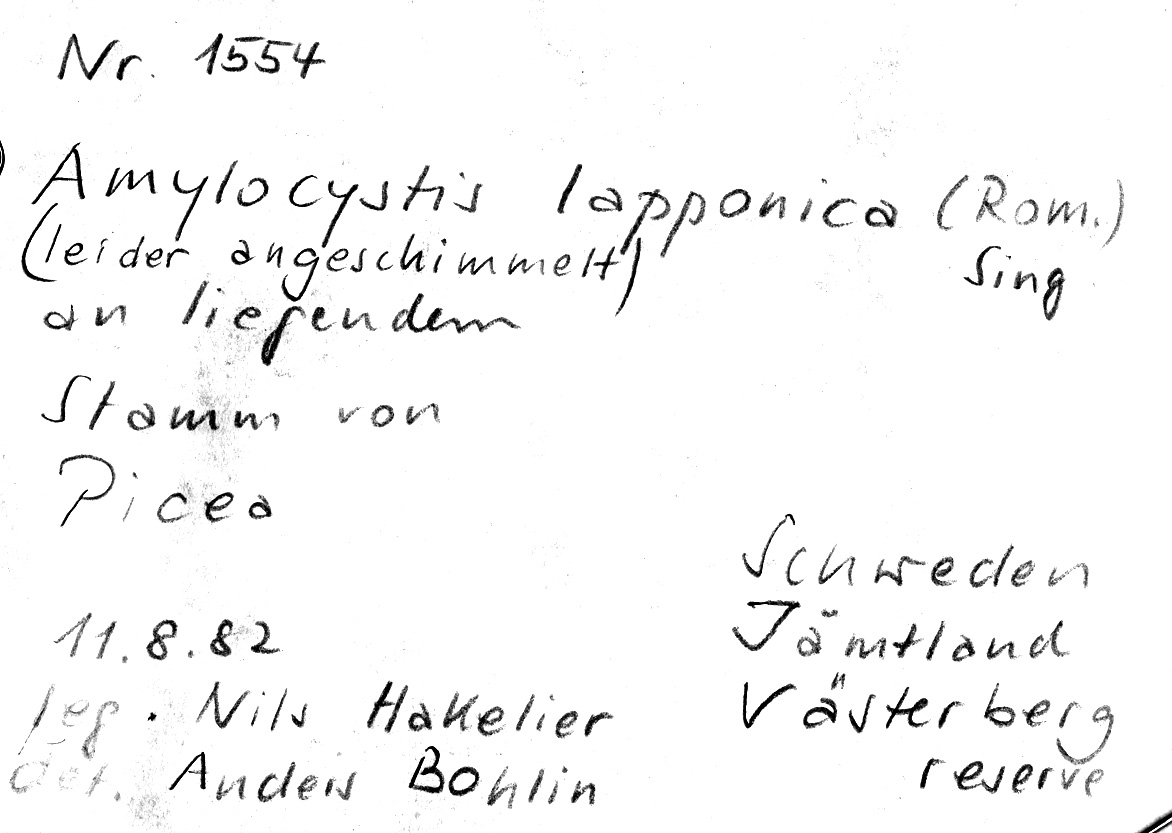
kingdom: Plantae
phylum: Tracheophyta
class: Pinopsida
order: Pinales
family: Pinaceae
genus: Picea
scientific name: Picea
